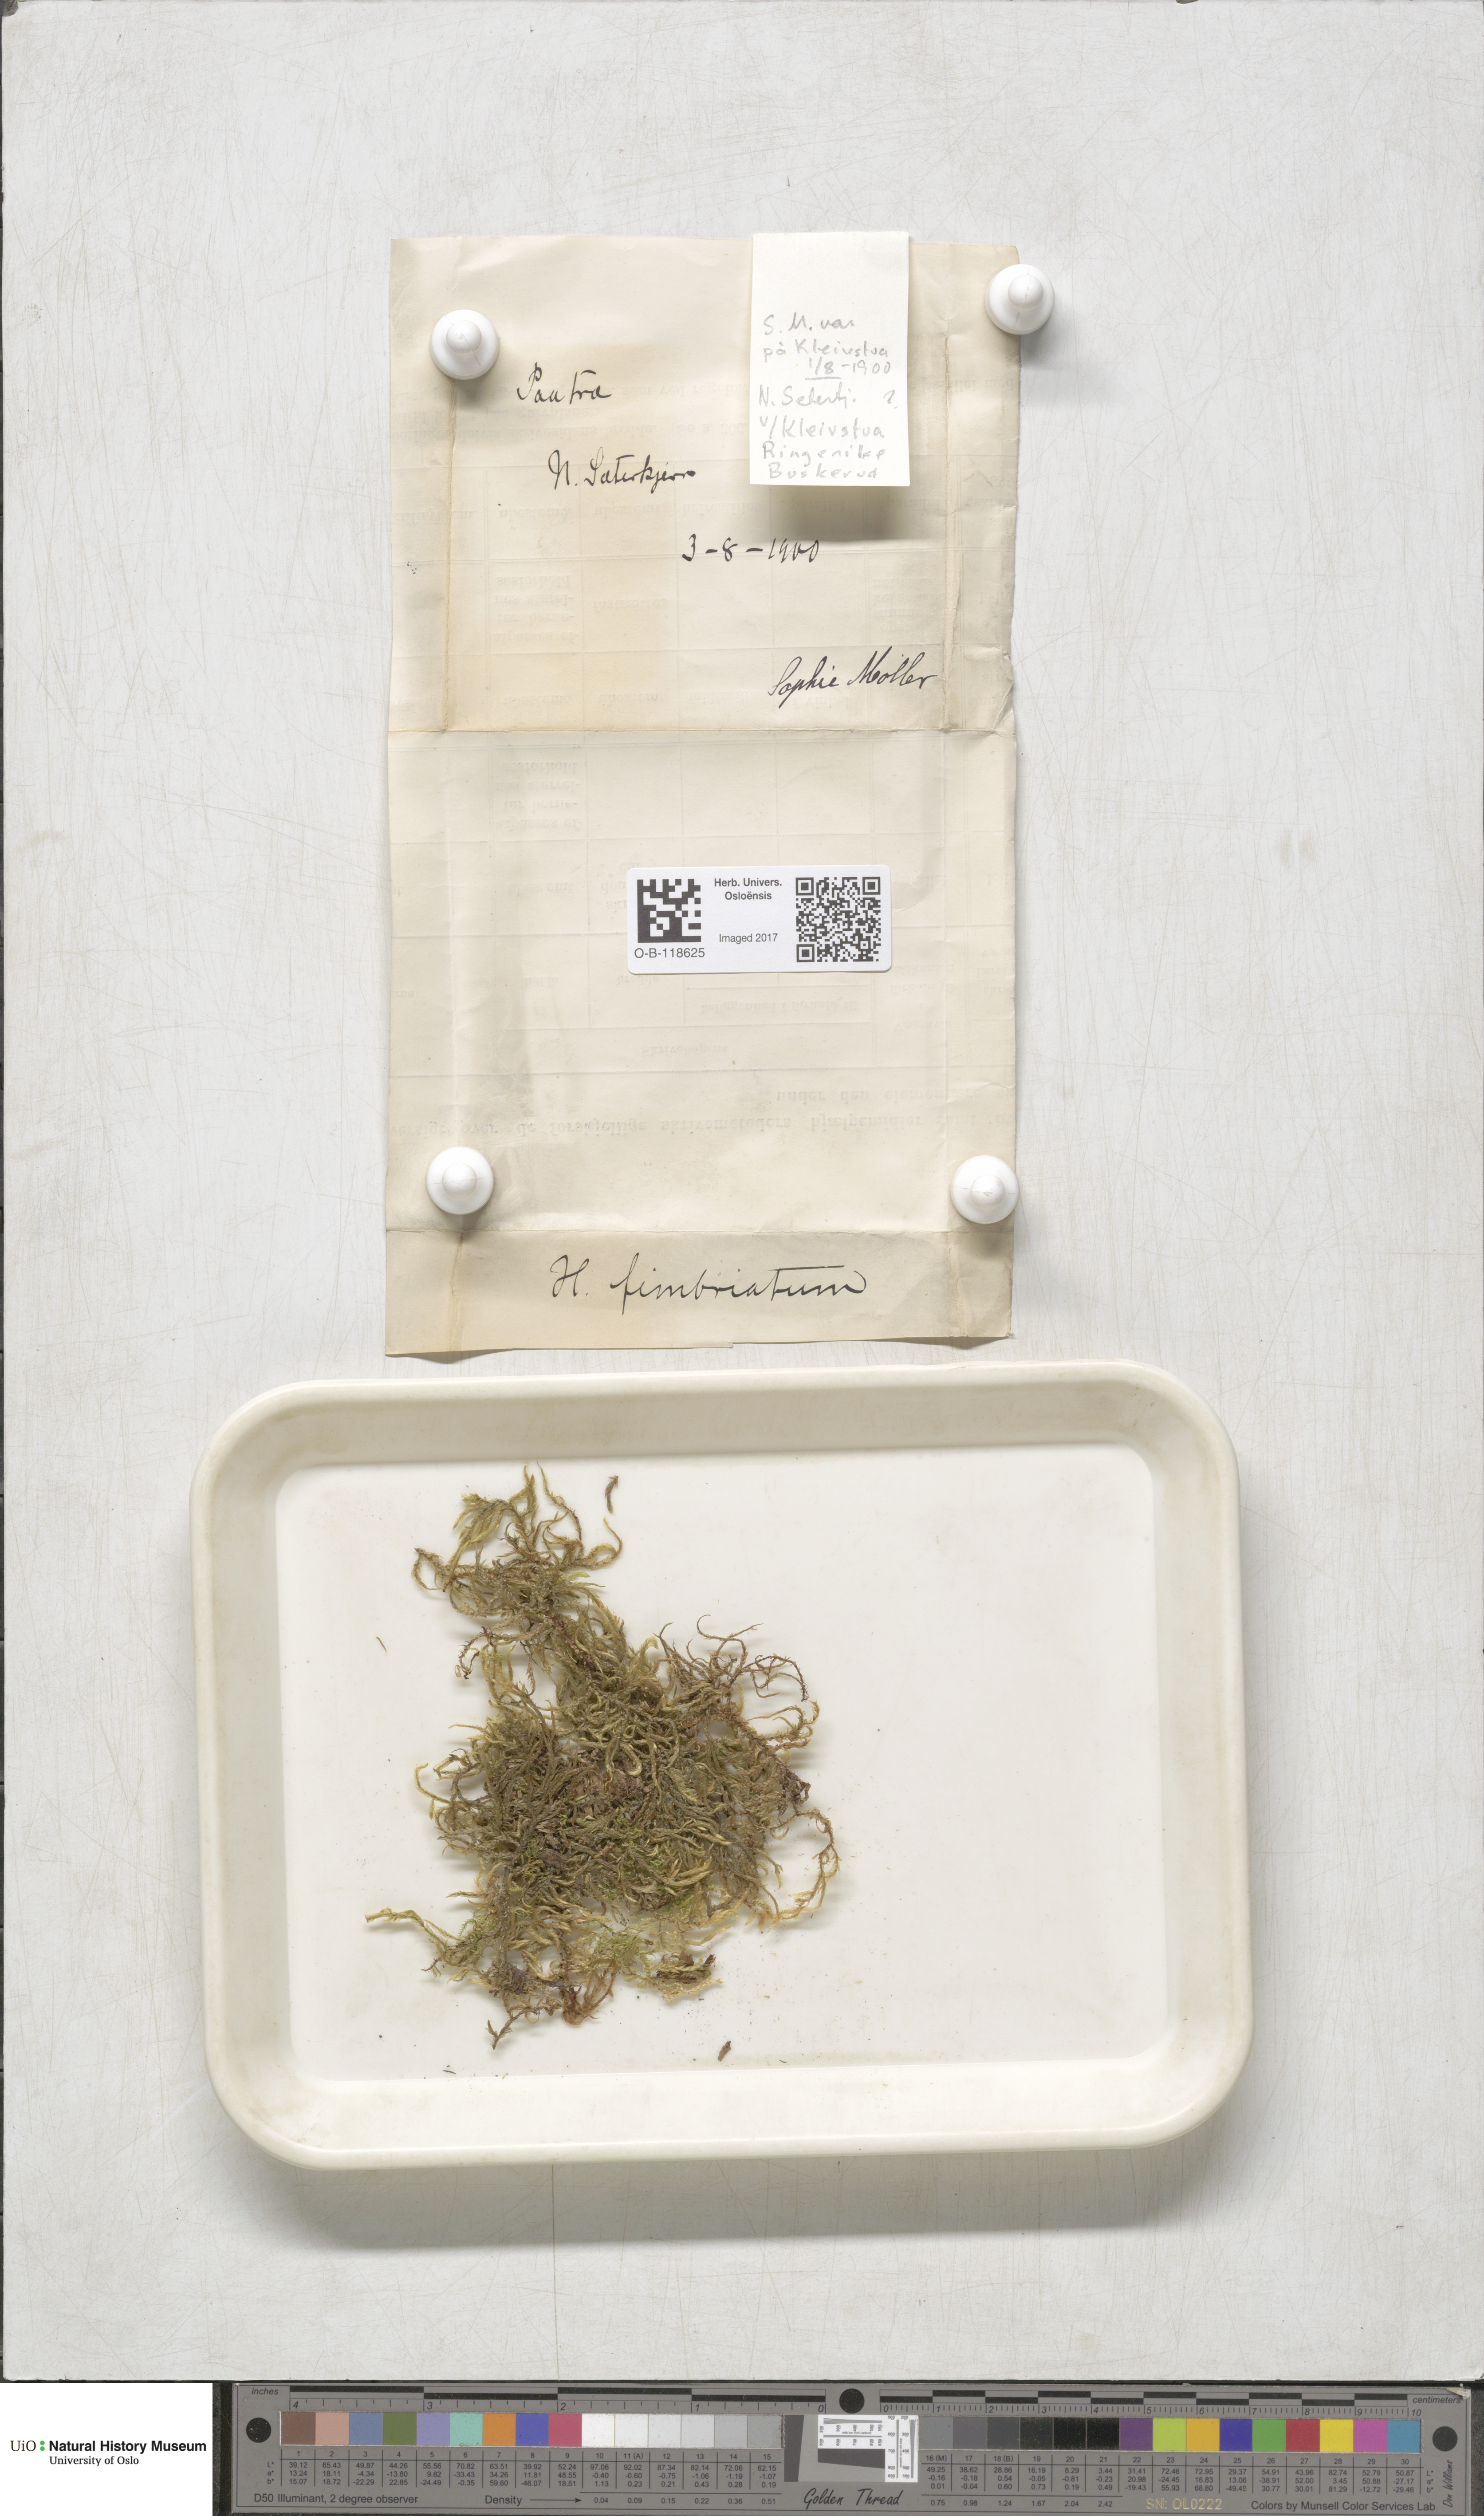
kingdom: Plantae
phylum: Bryophyta
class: Bryopsida
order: Hypnales
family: Hylocomiaceae
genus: Hylocomiastrum
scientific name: Hylocomiastrum pyrenaicum
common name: Oake s wood moss
